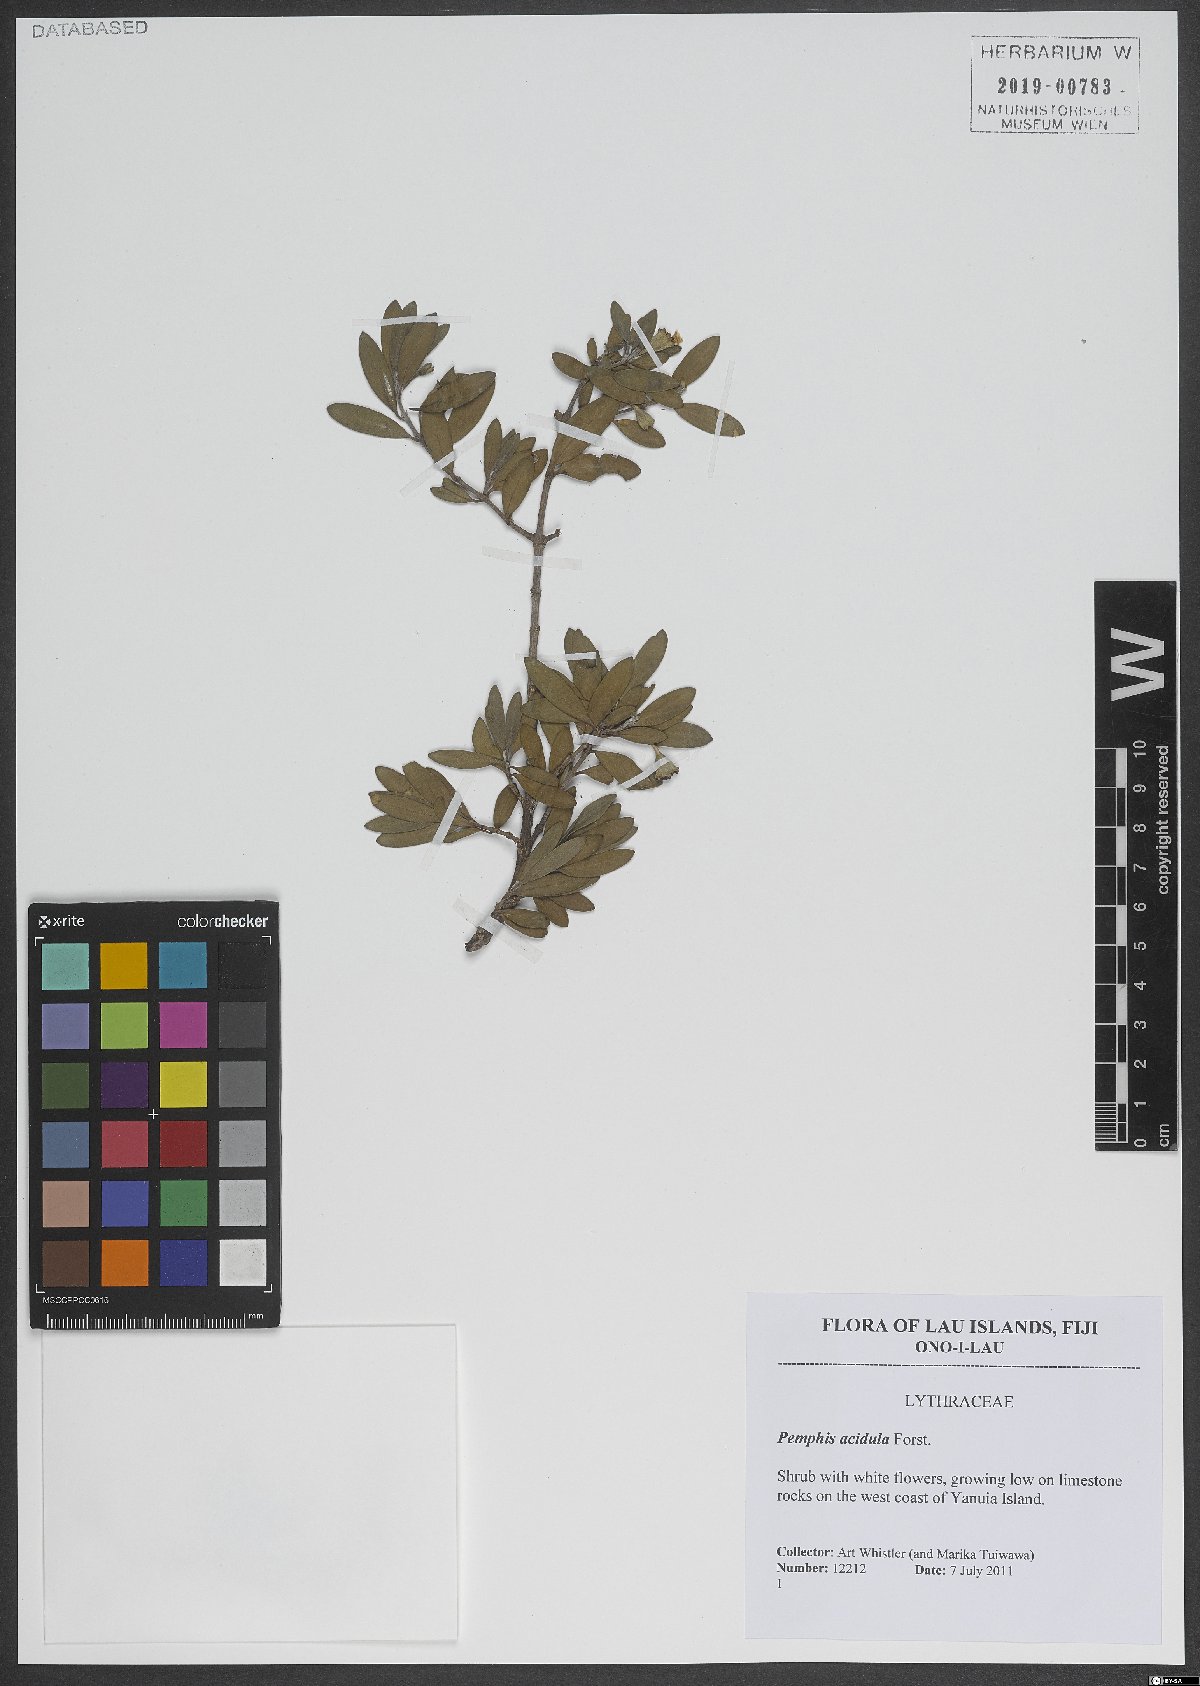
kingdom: Plantae
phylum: Tracheophyta
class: Magnoliopsida
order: Myrtales
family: Lythraceae
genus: Pemphis
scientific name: Pemphis acidula
